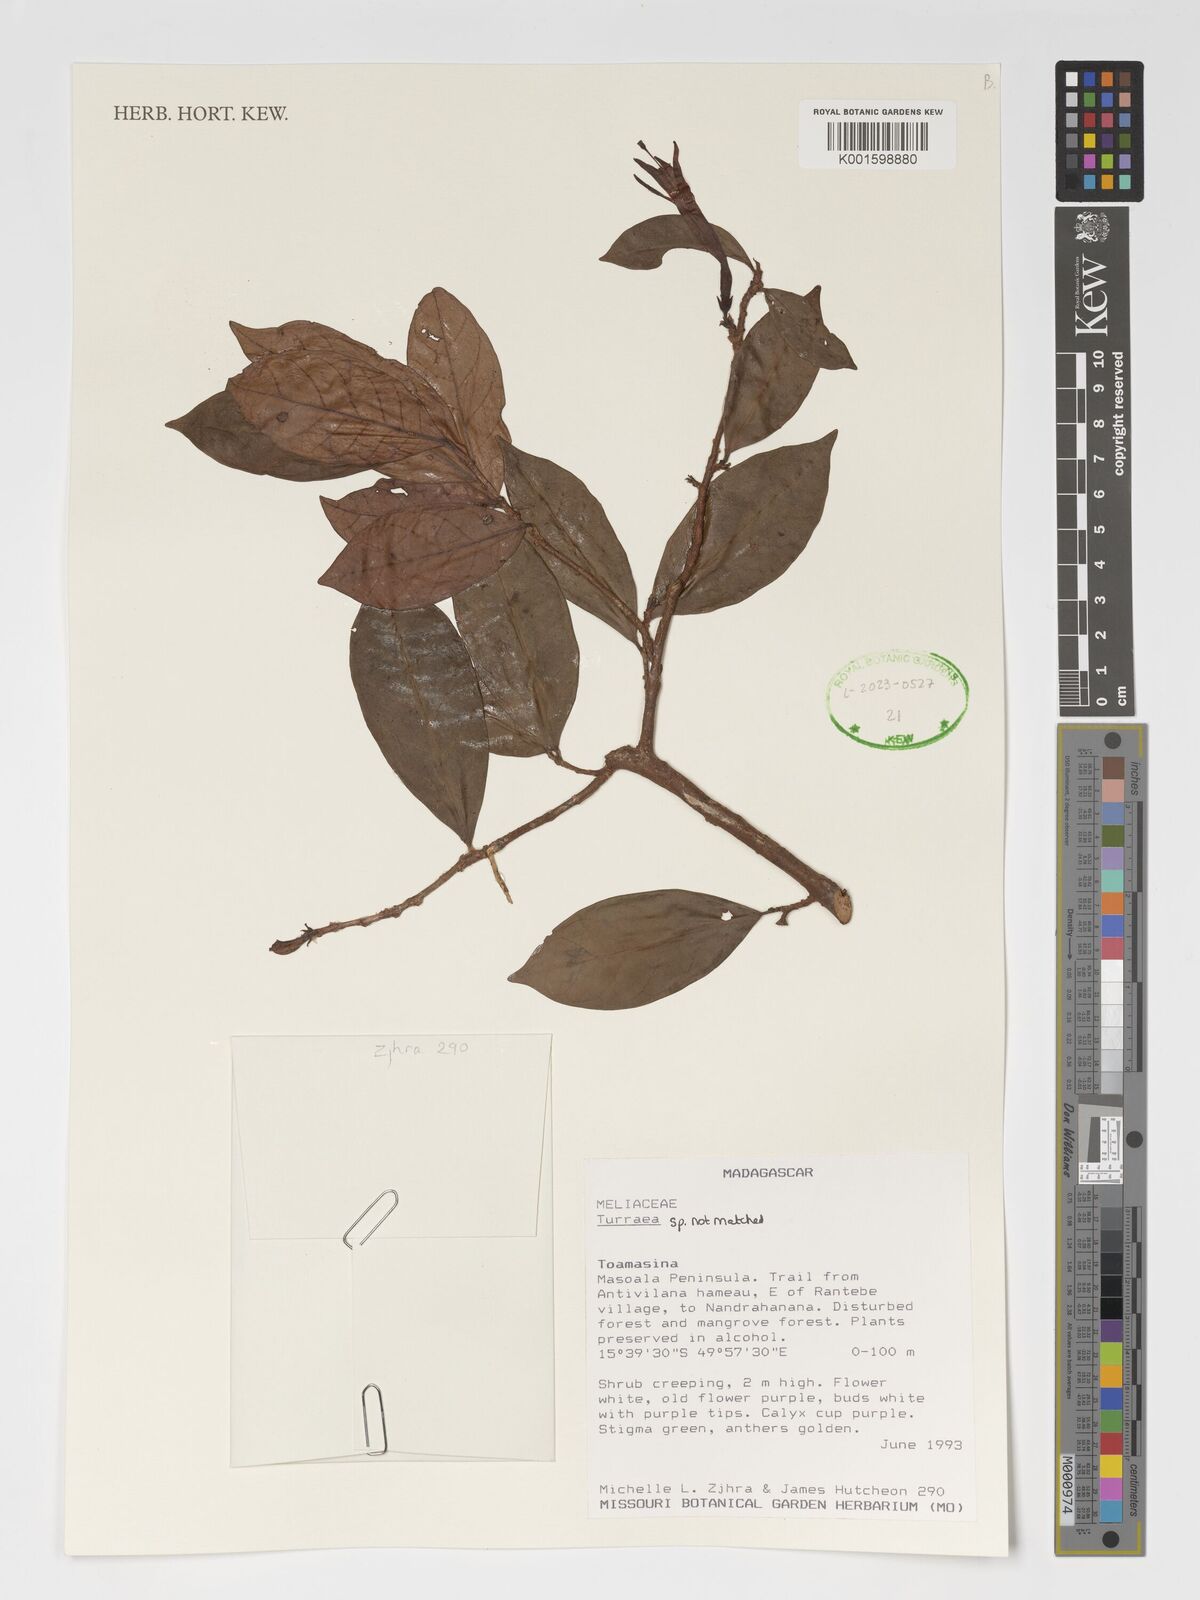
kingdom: Plantae
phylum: Tracheophyta
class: Magnoliopsida
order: Sapindales
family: Meliaceae
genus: Turraea
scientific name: Turraea
